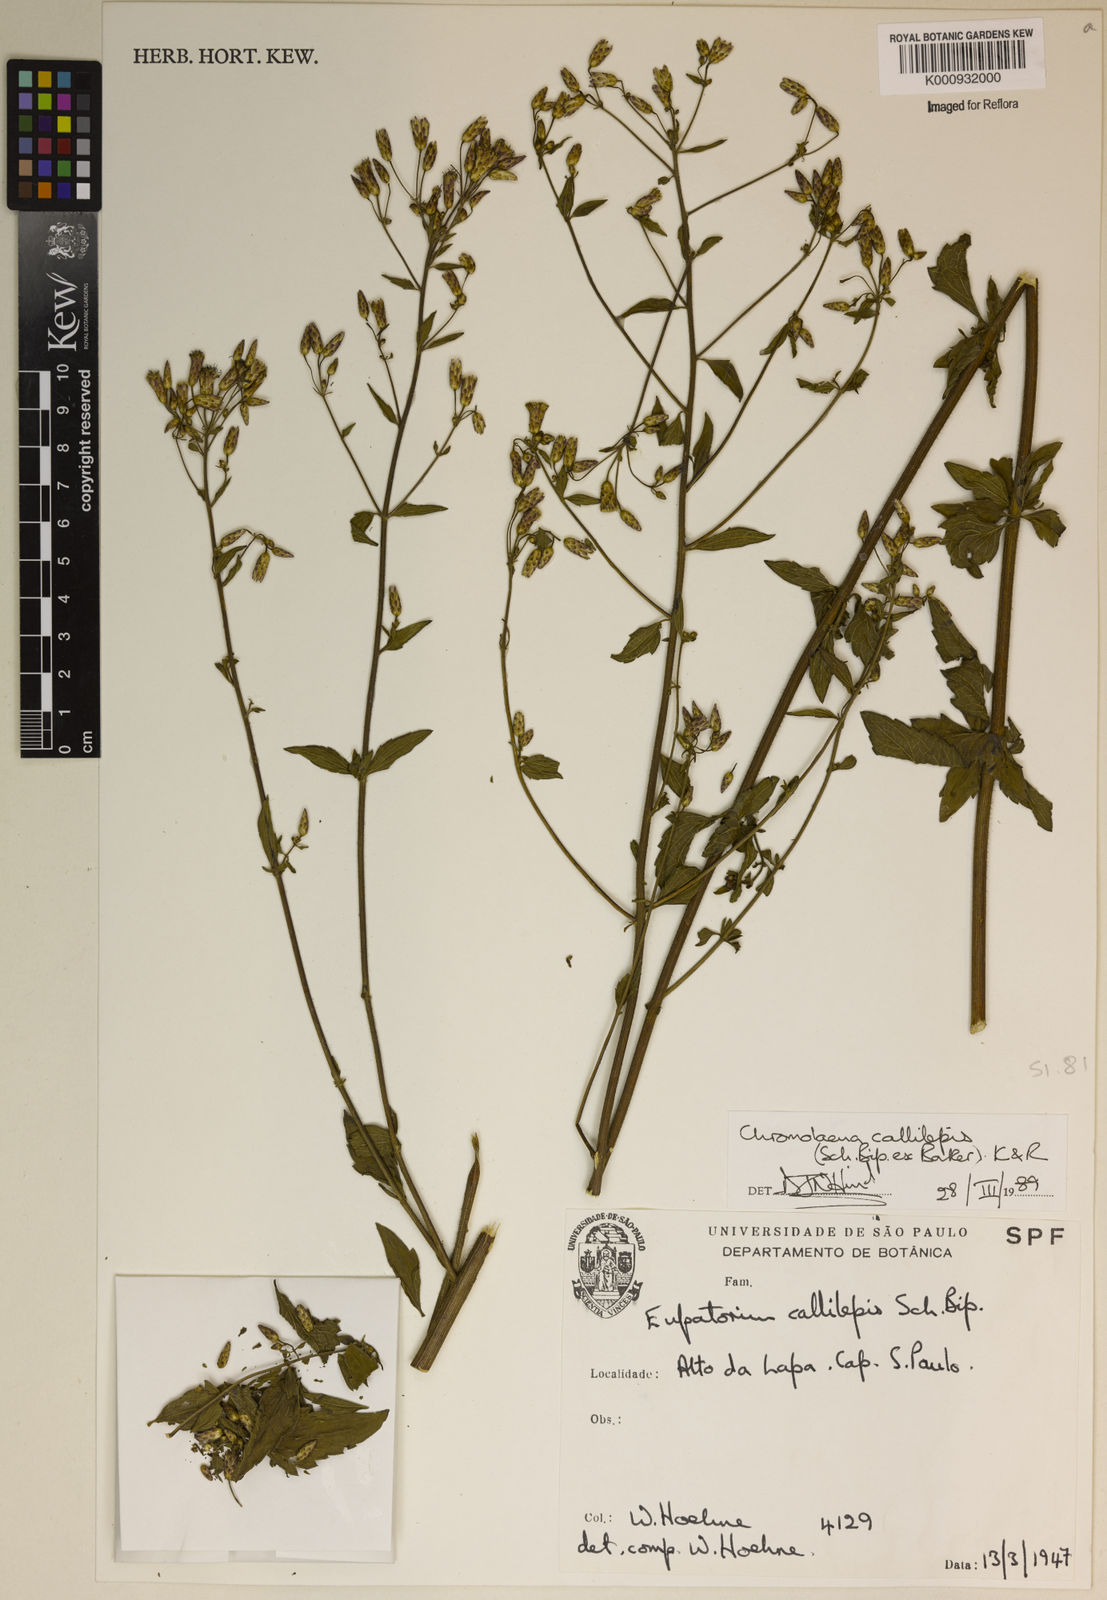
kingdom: Plantae
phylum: Tracheophyta
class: Magnoliopsida
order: Asterales
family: Asteraceae
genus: Chromolaena
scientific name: Chromolaena callilepis
